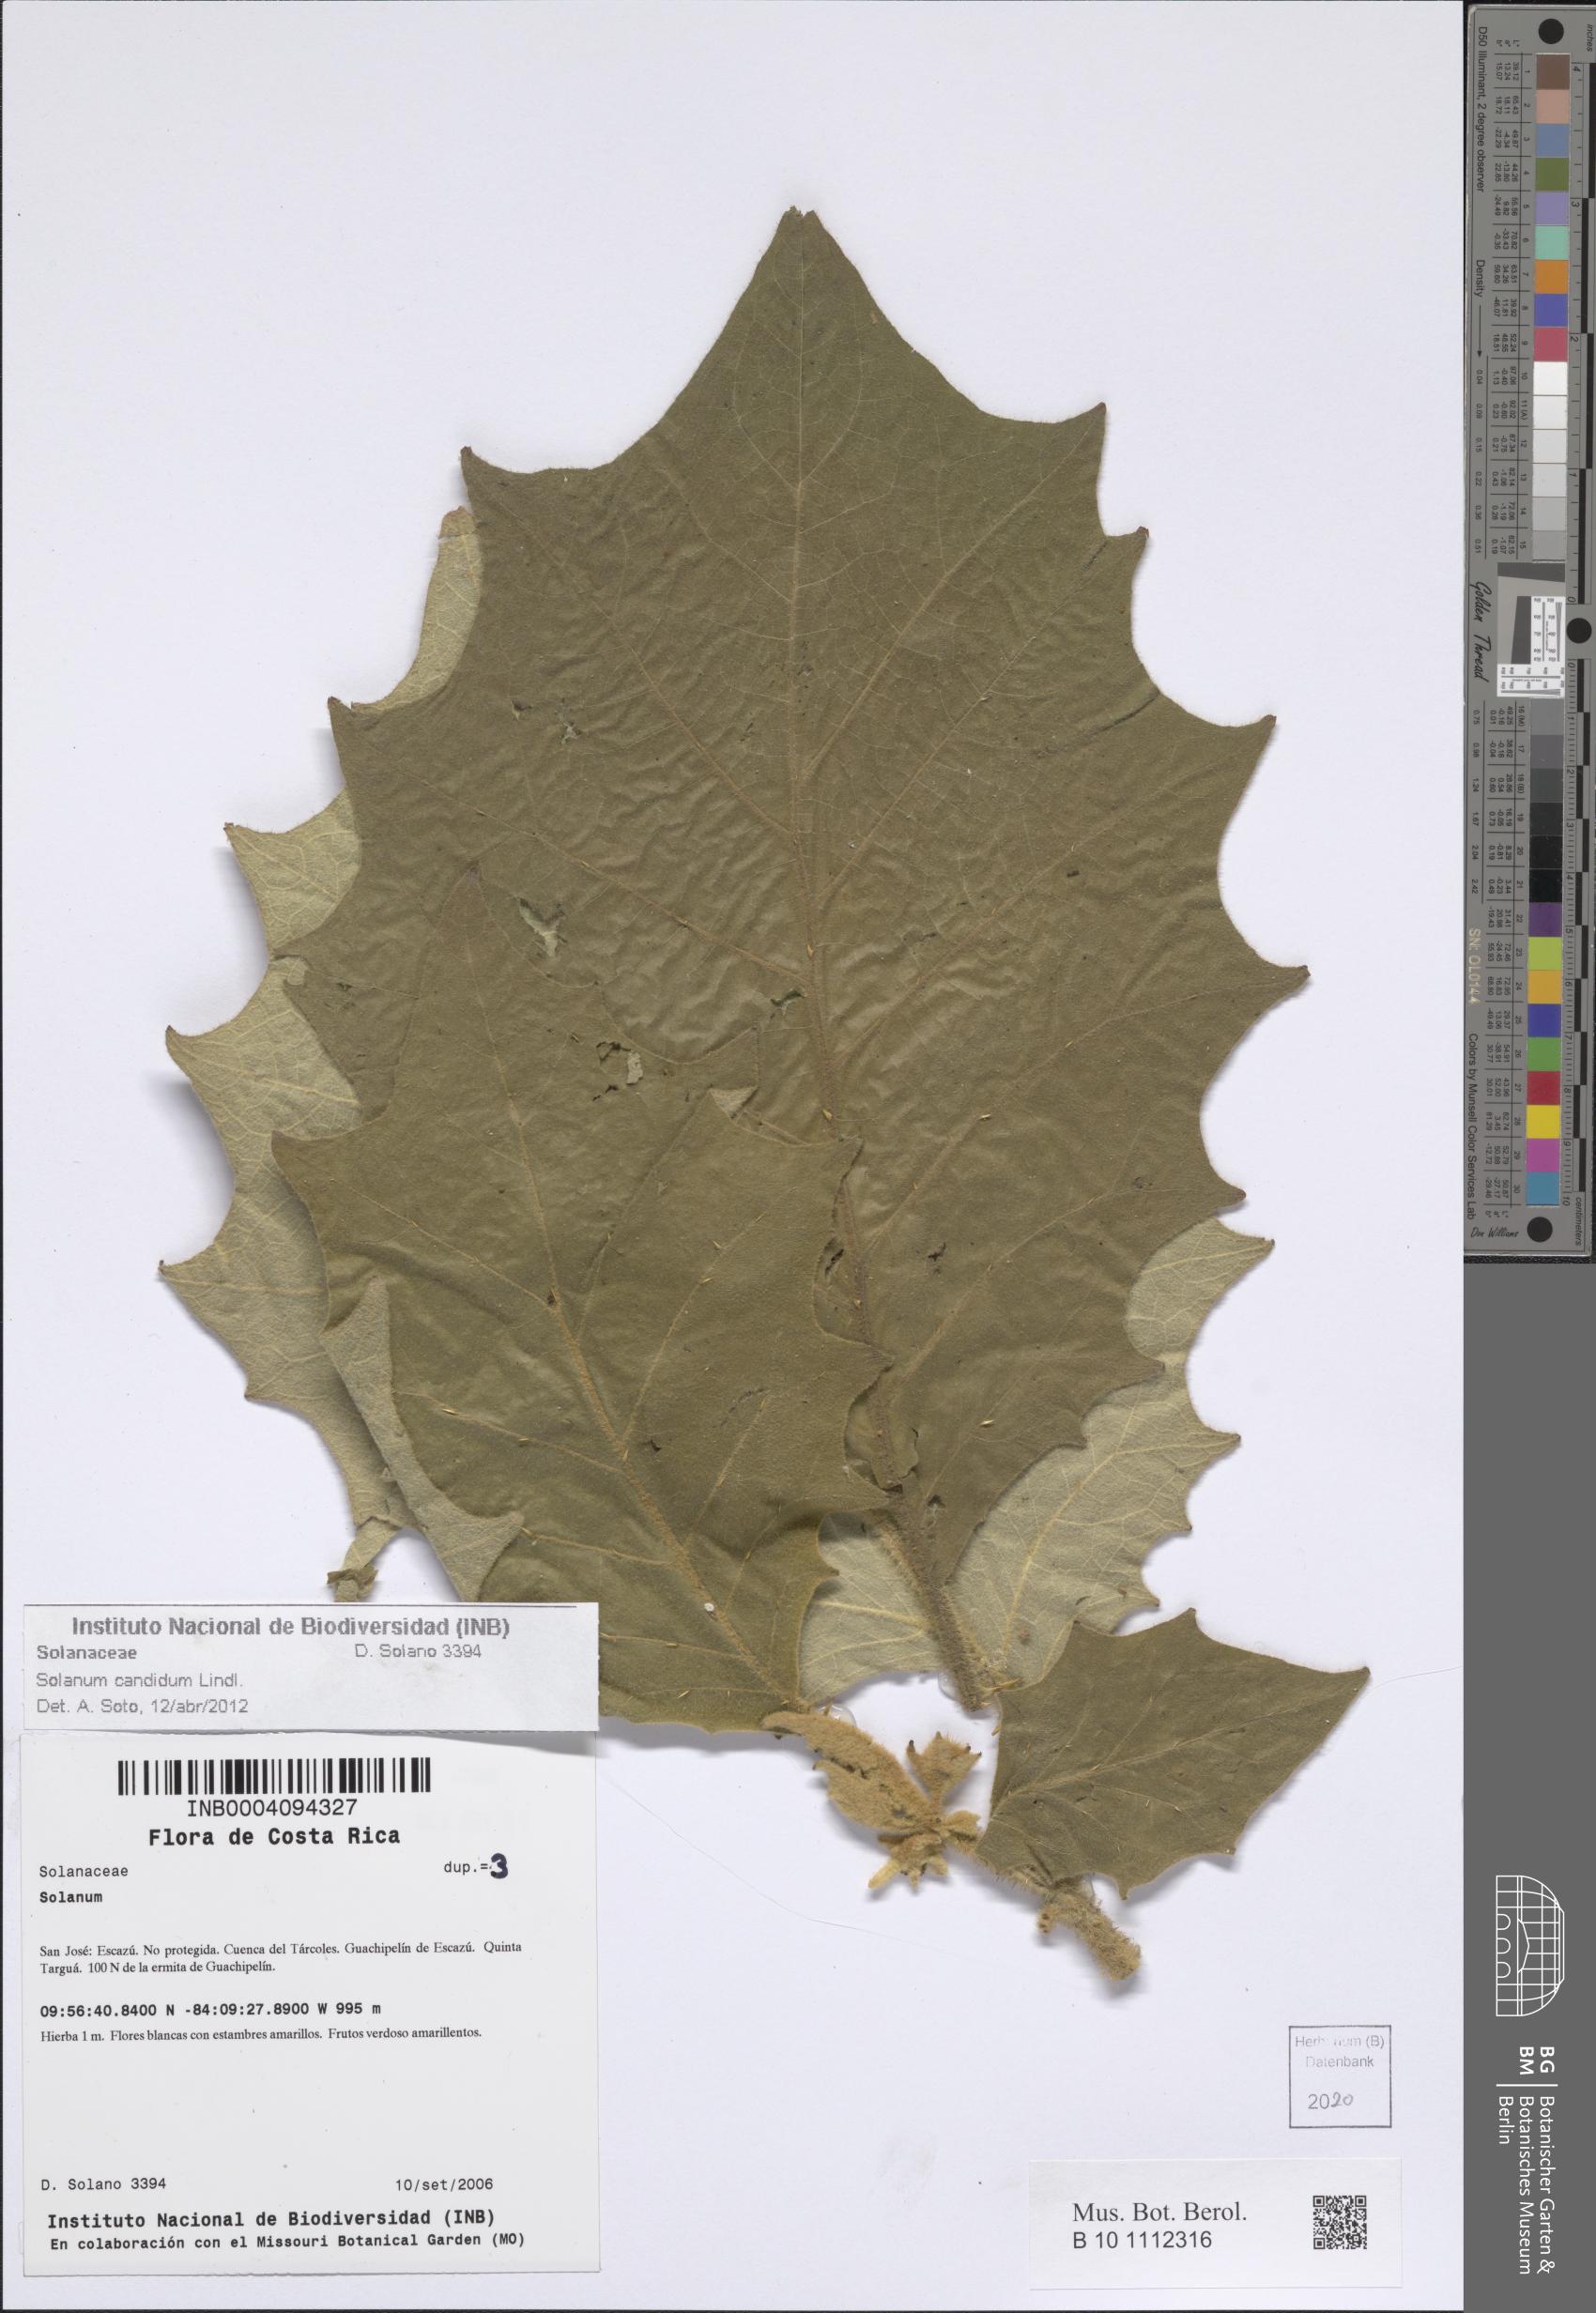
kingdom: Plantae
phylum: Tracheophyta
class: Magnoliopsida
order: Solanales
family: Solanaceae
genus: Solanum
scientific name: Solanum candidum
